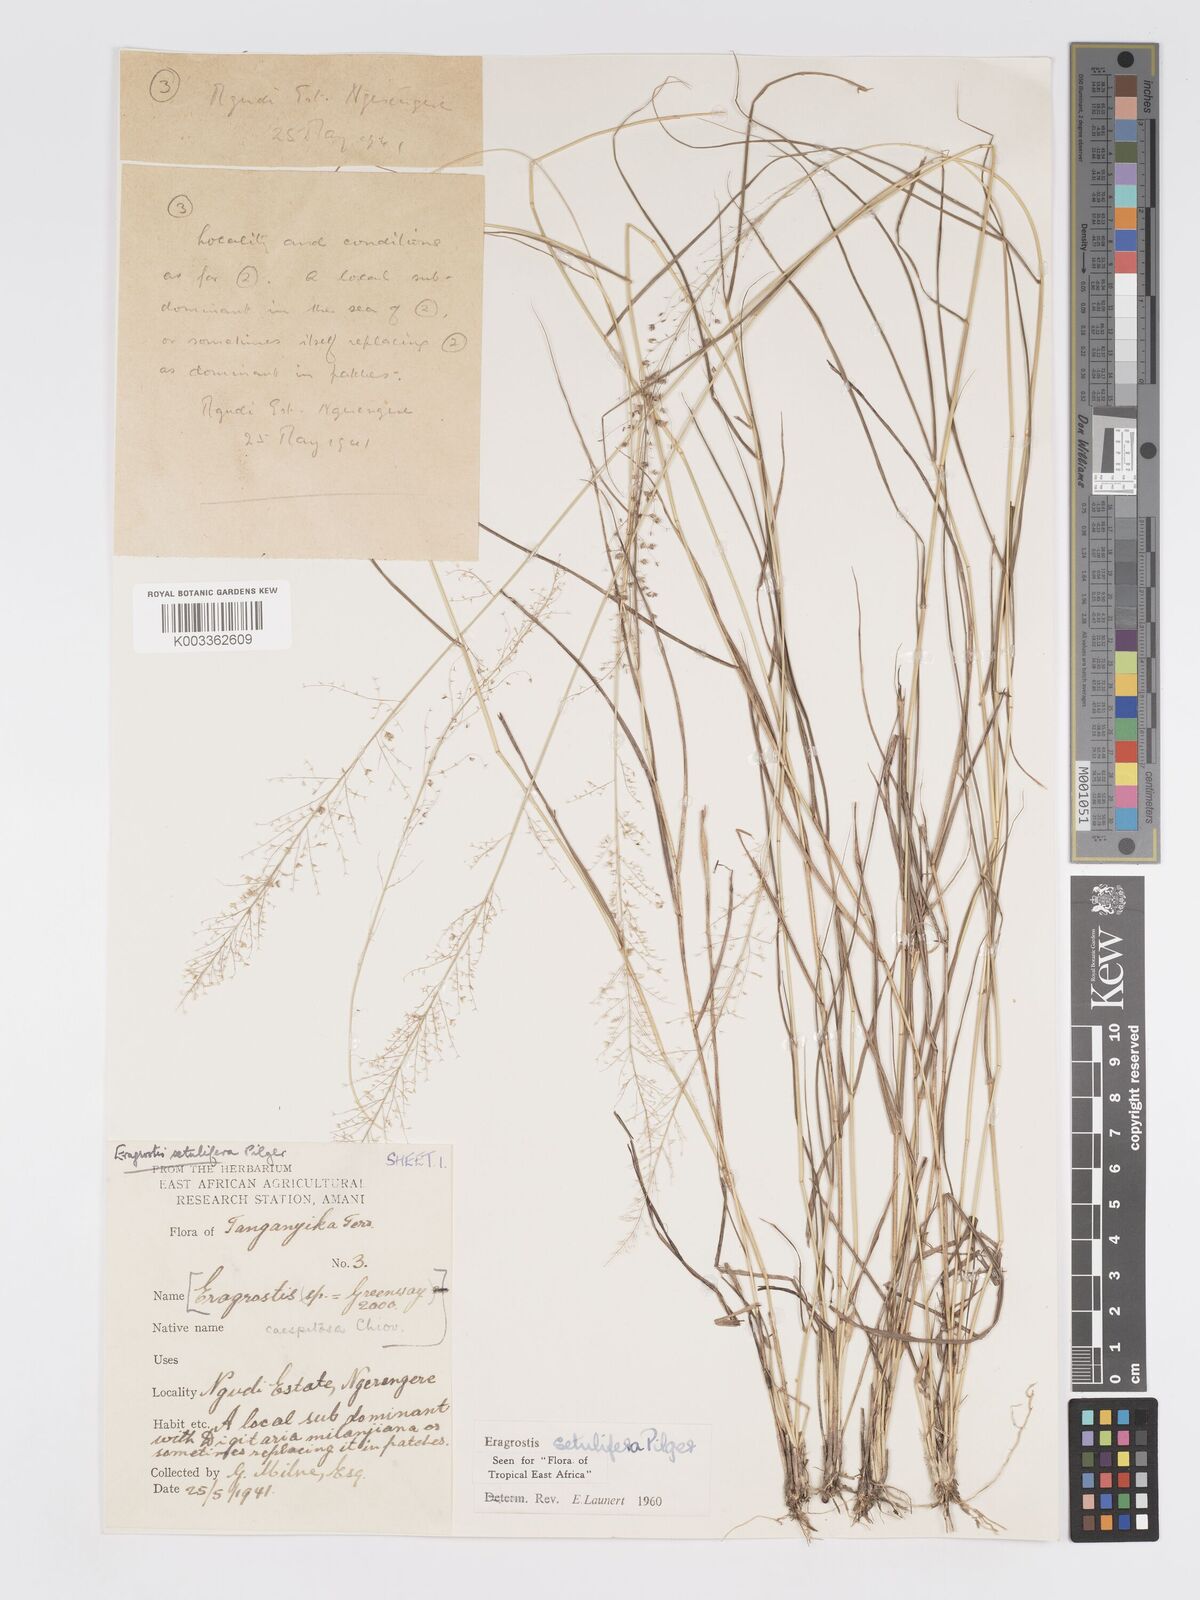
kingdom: Plantae
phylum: Tracheophyta
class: Liliopsida
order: Poales
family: Poaceae
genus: Eragrostis
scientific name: Eragrostis setulifera
